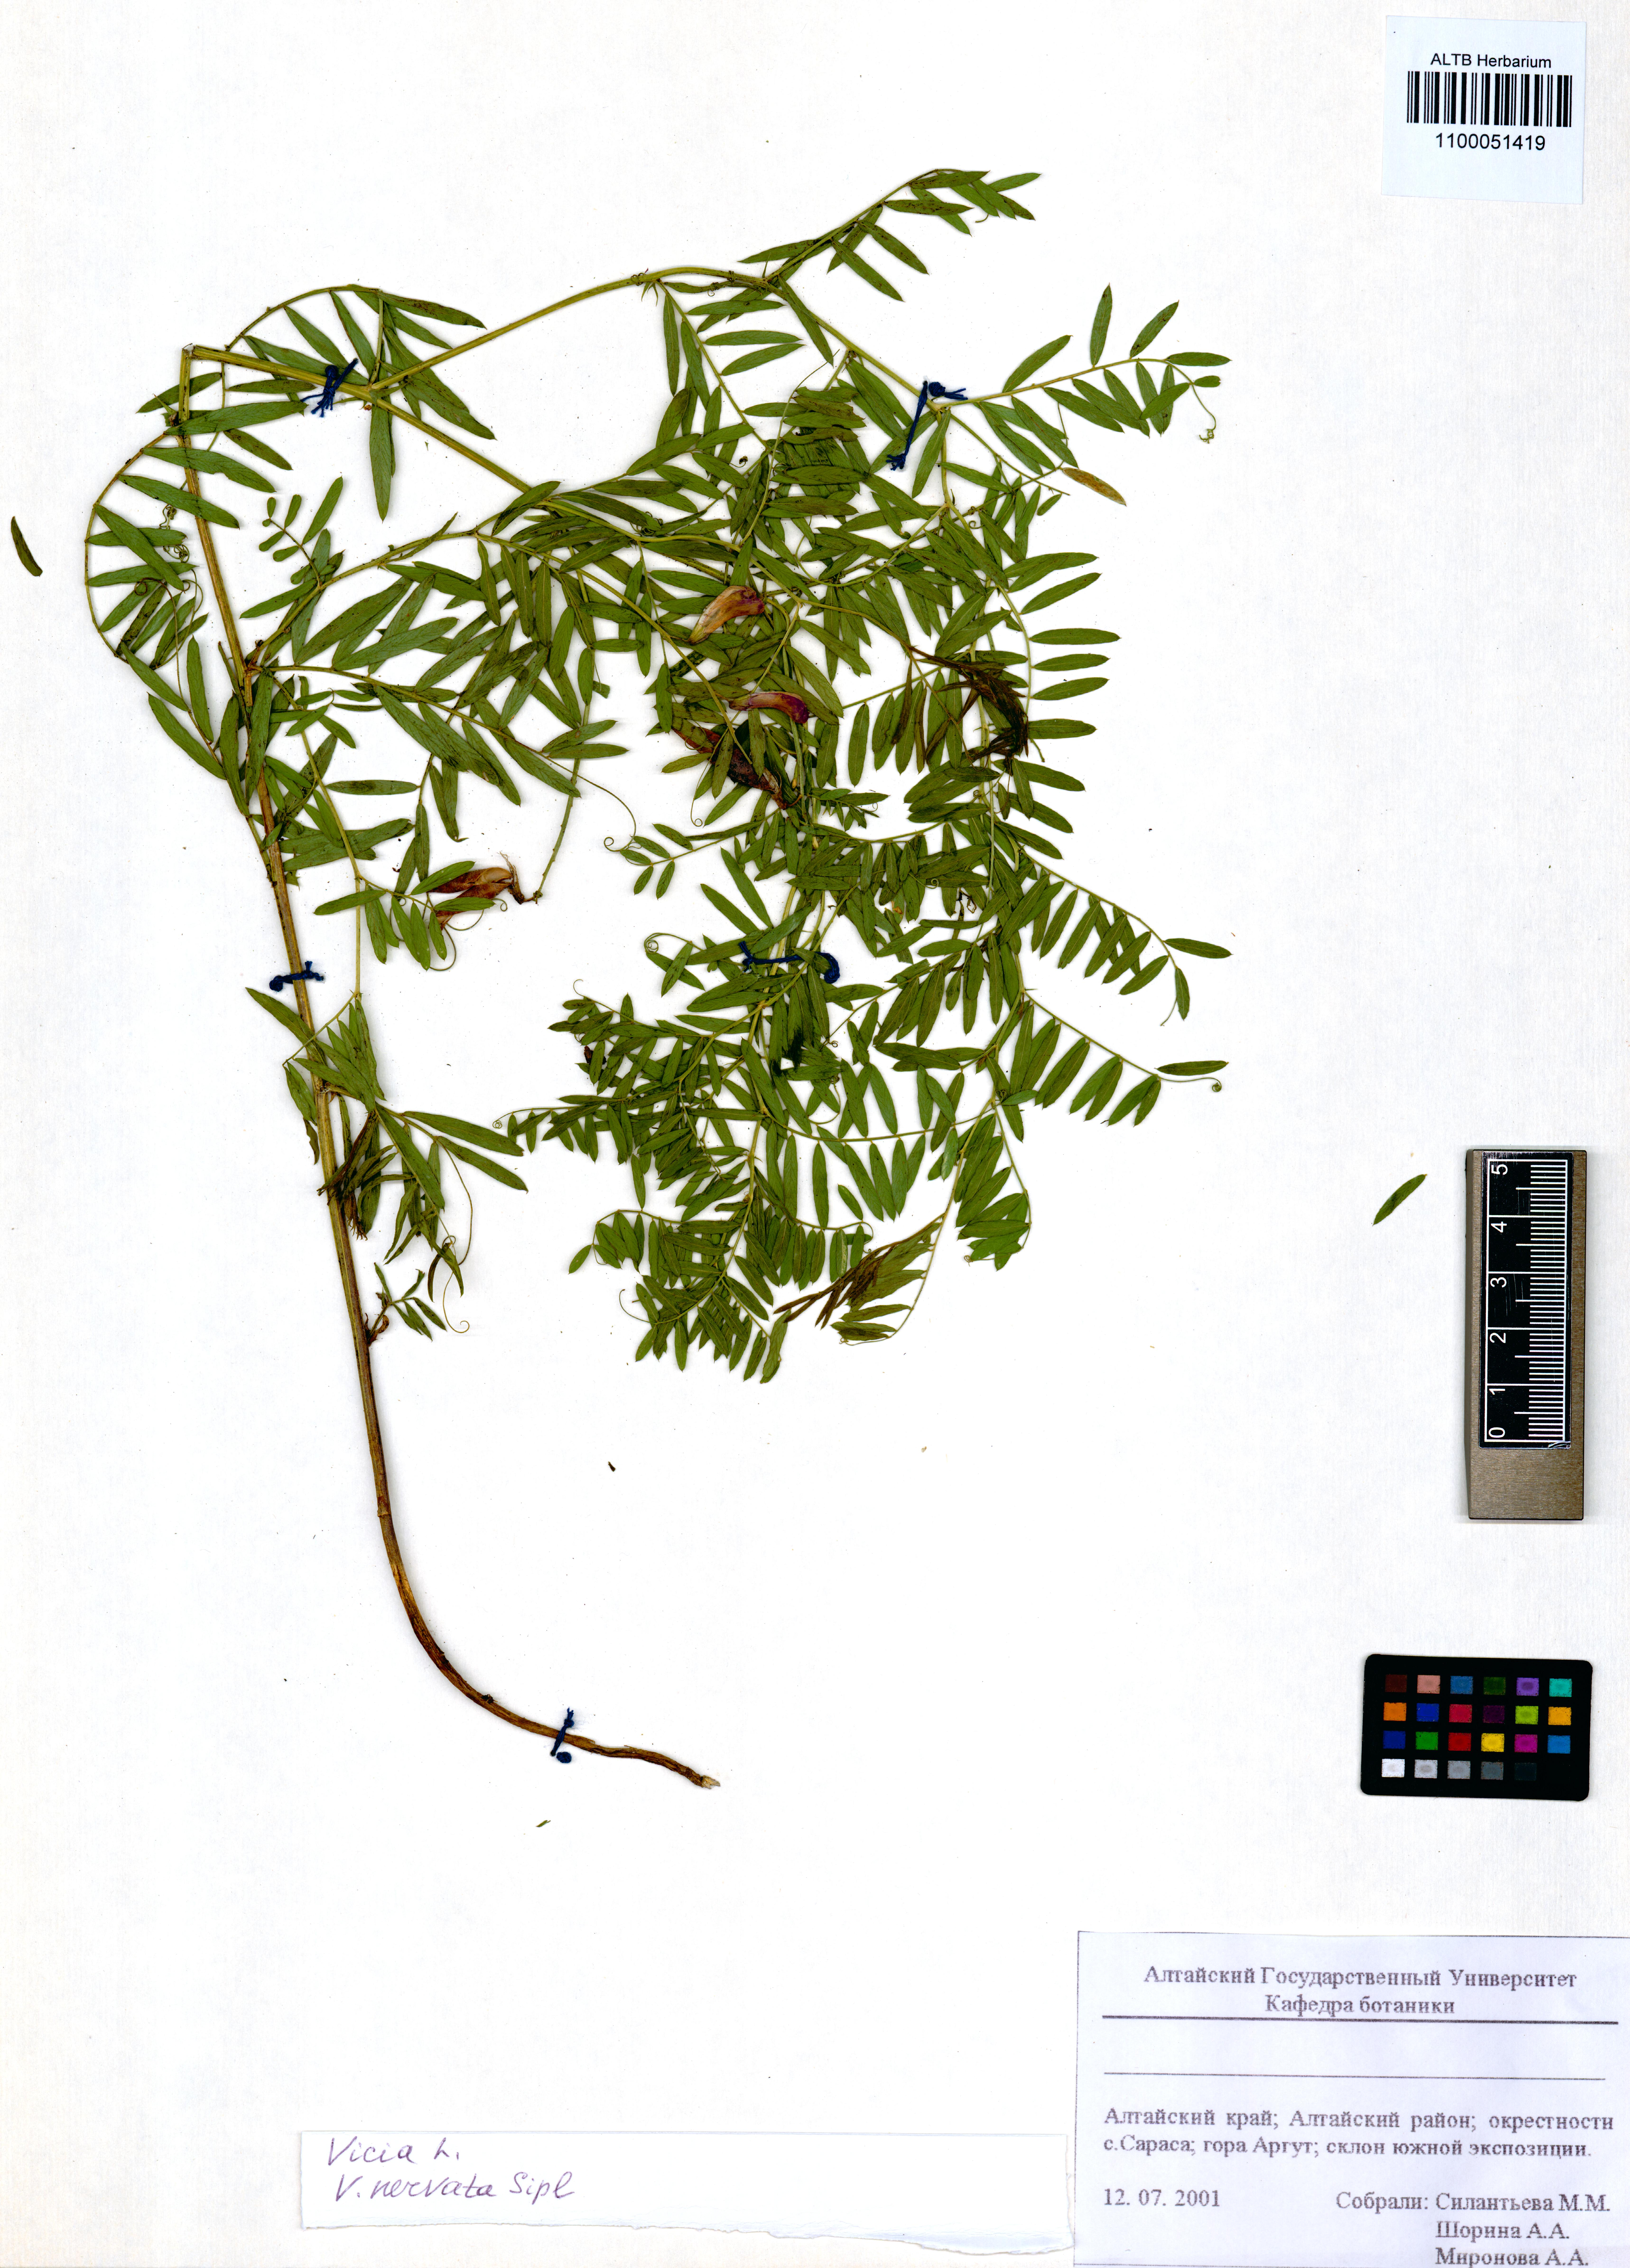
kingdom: Plantae
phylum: Tracheophyta
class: Magnoliopsida
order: Fabales
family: Fabaceae
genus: Vicia
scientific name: Vicia multicaulis
